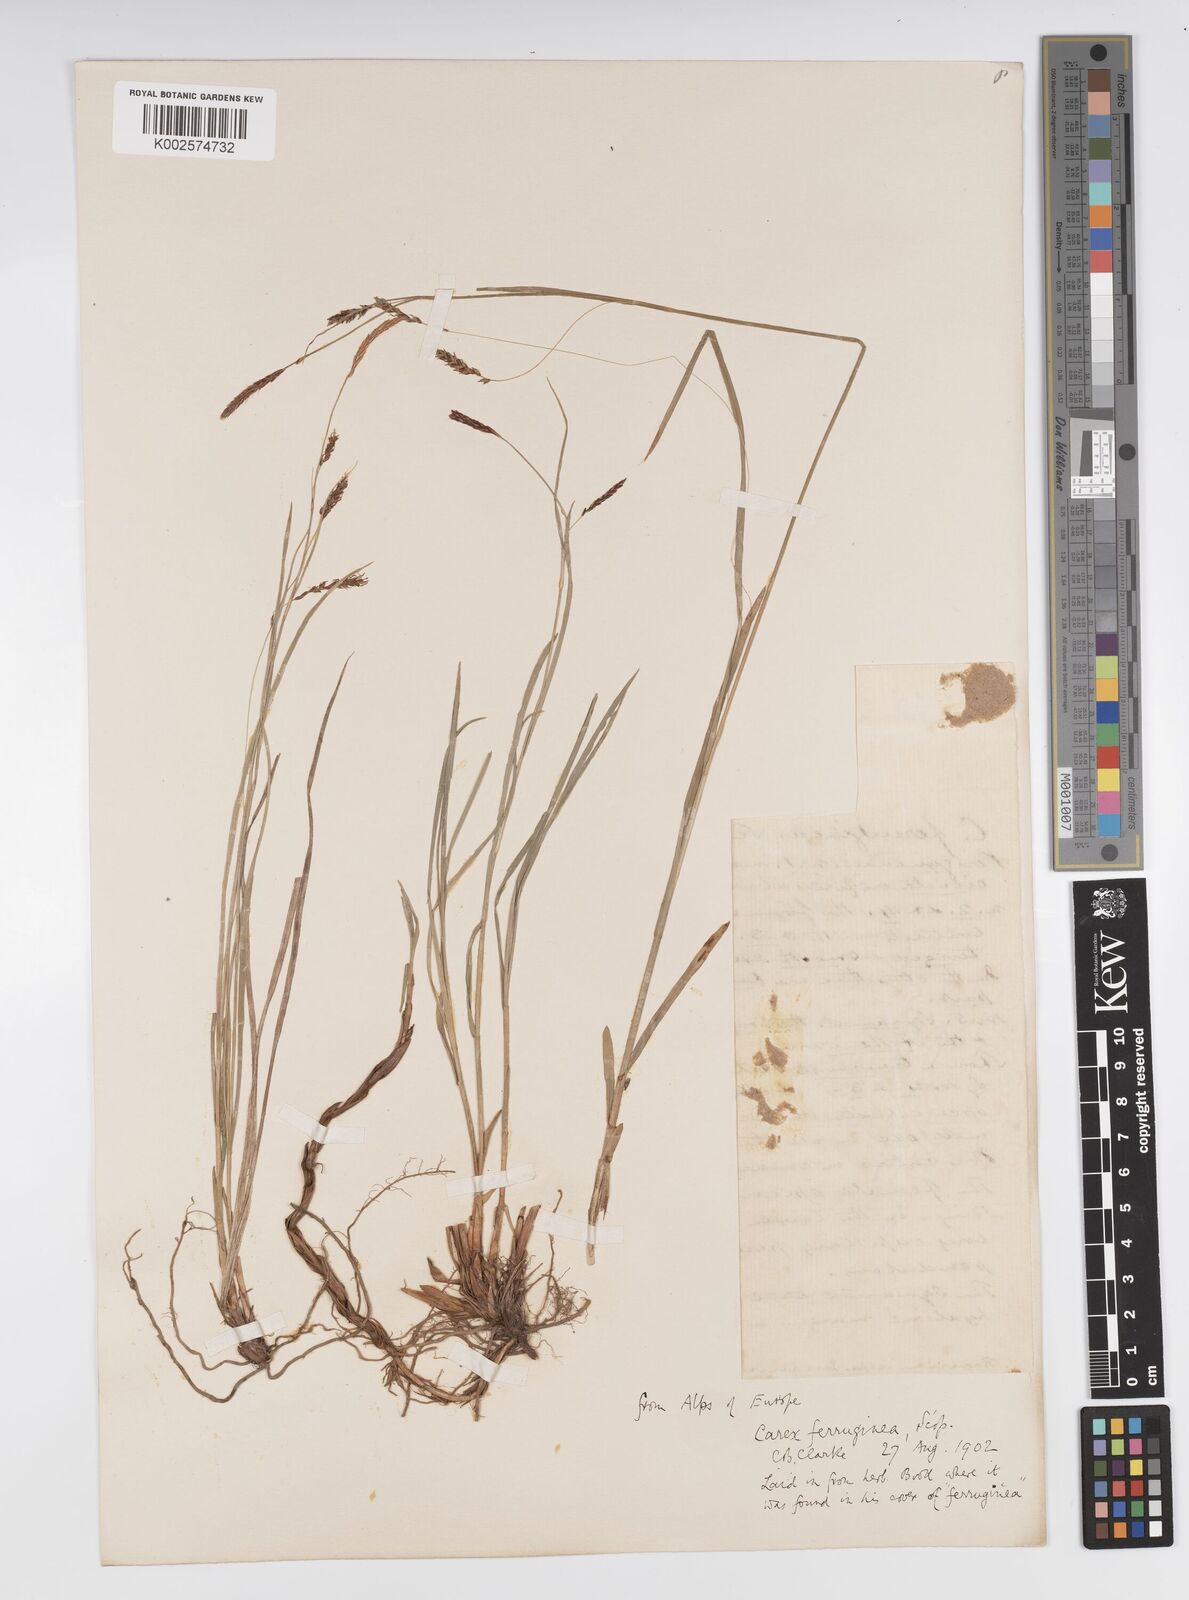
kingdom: Plantae
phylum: Tracheophyta
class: Liliopsida
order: Poales
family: Cyperaceae
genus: Carex
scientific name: Carex ferruginea
